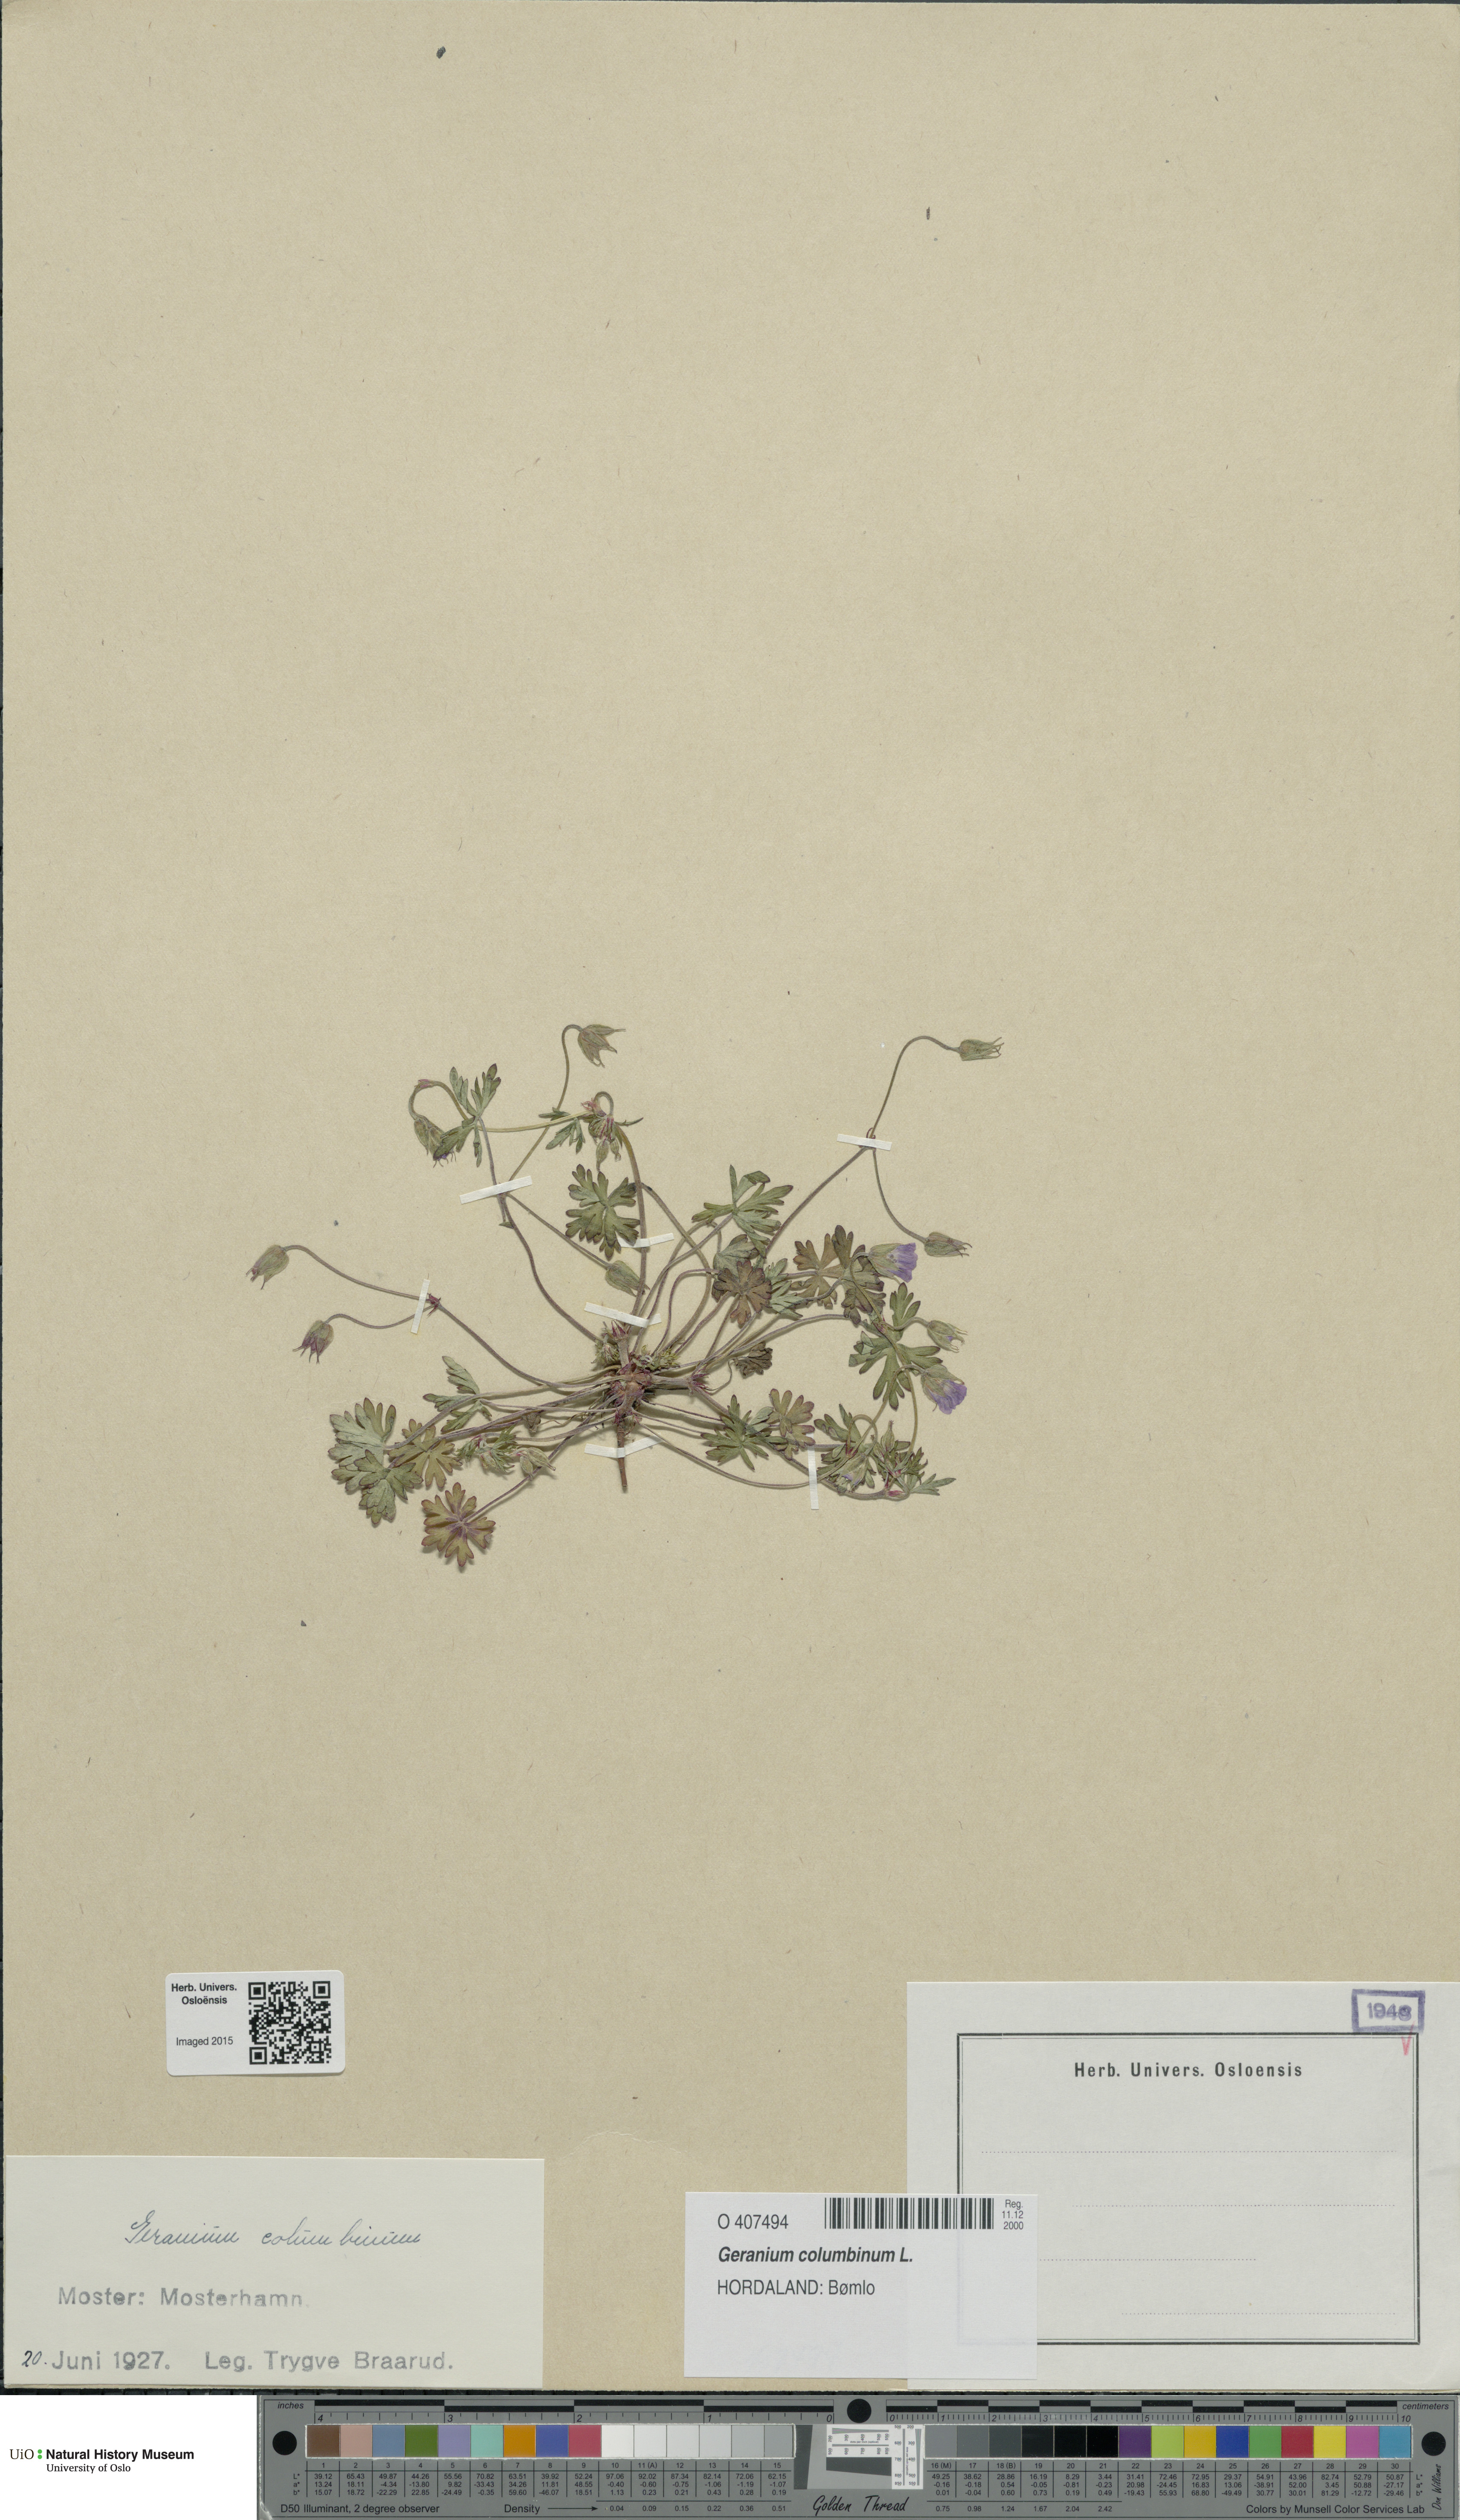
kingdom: Plantae
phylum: Tracheophyta
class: Magnoliopsida
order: Geraniales
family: Geraniaceae
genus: Geranium
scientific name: Geranium columbinum
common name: Long-stalked crane's-bill
